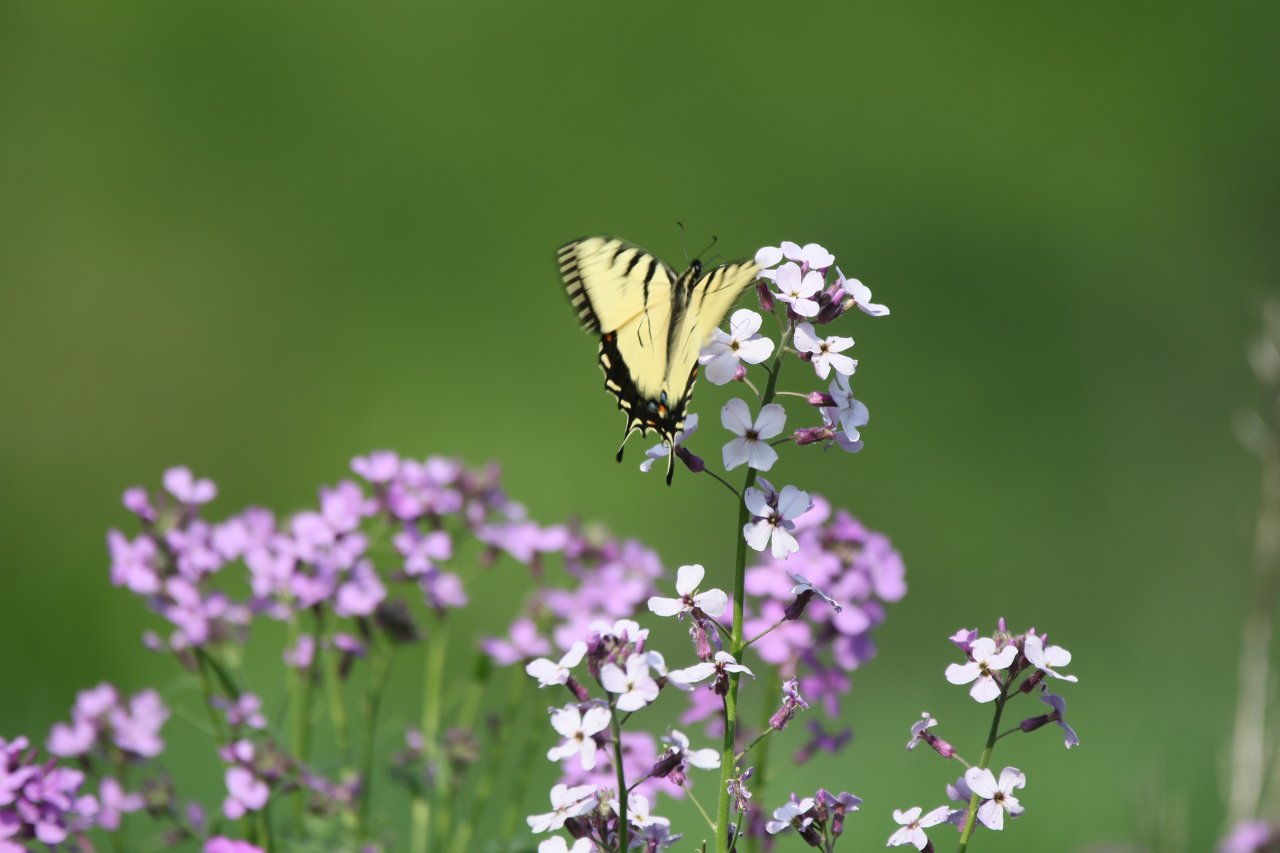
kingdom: Animalia
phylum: Arthropoda
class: Insecta
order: Lepidoptera
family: Papilionidae
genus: Pterourus
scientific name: Pterourus glaucus
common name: Eastern Tiger Swallowtail
